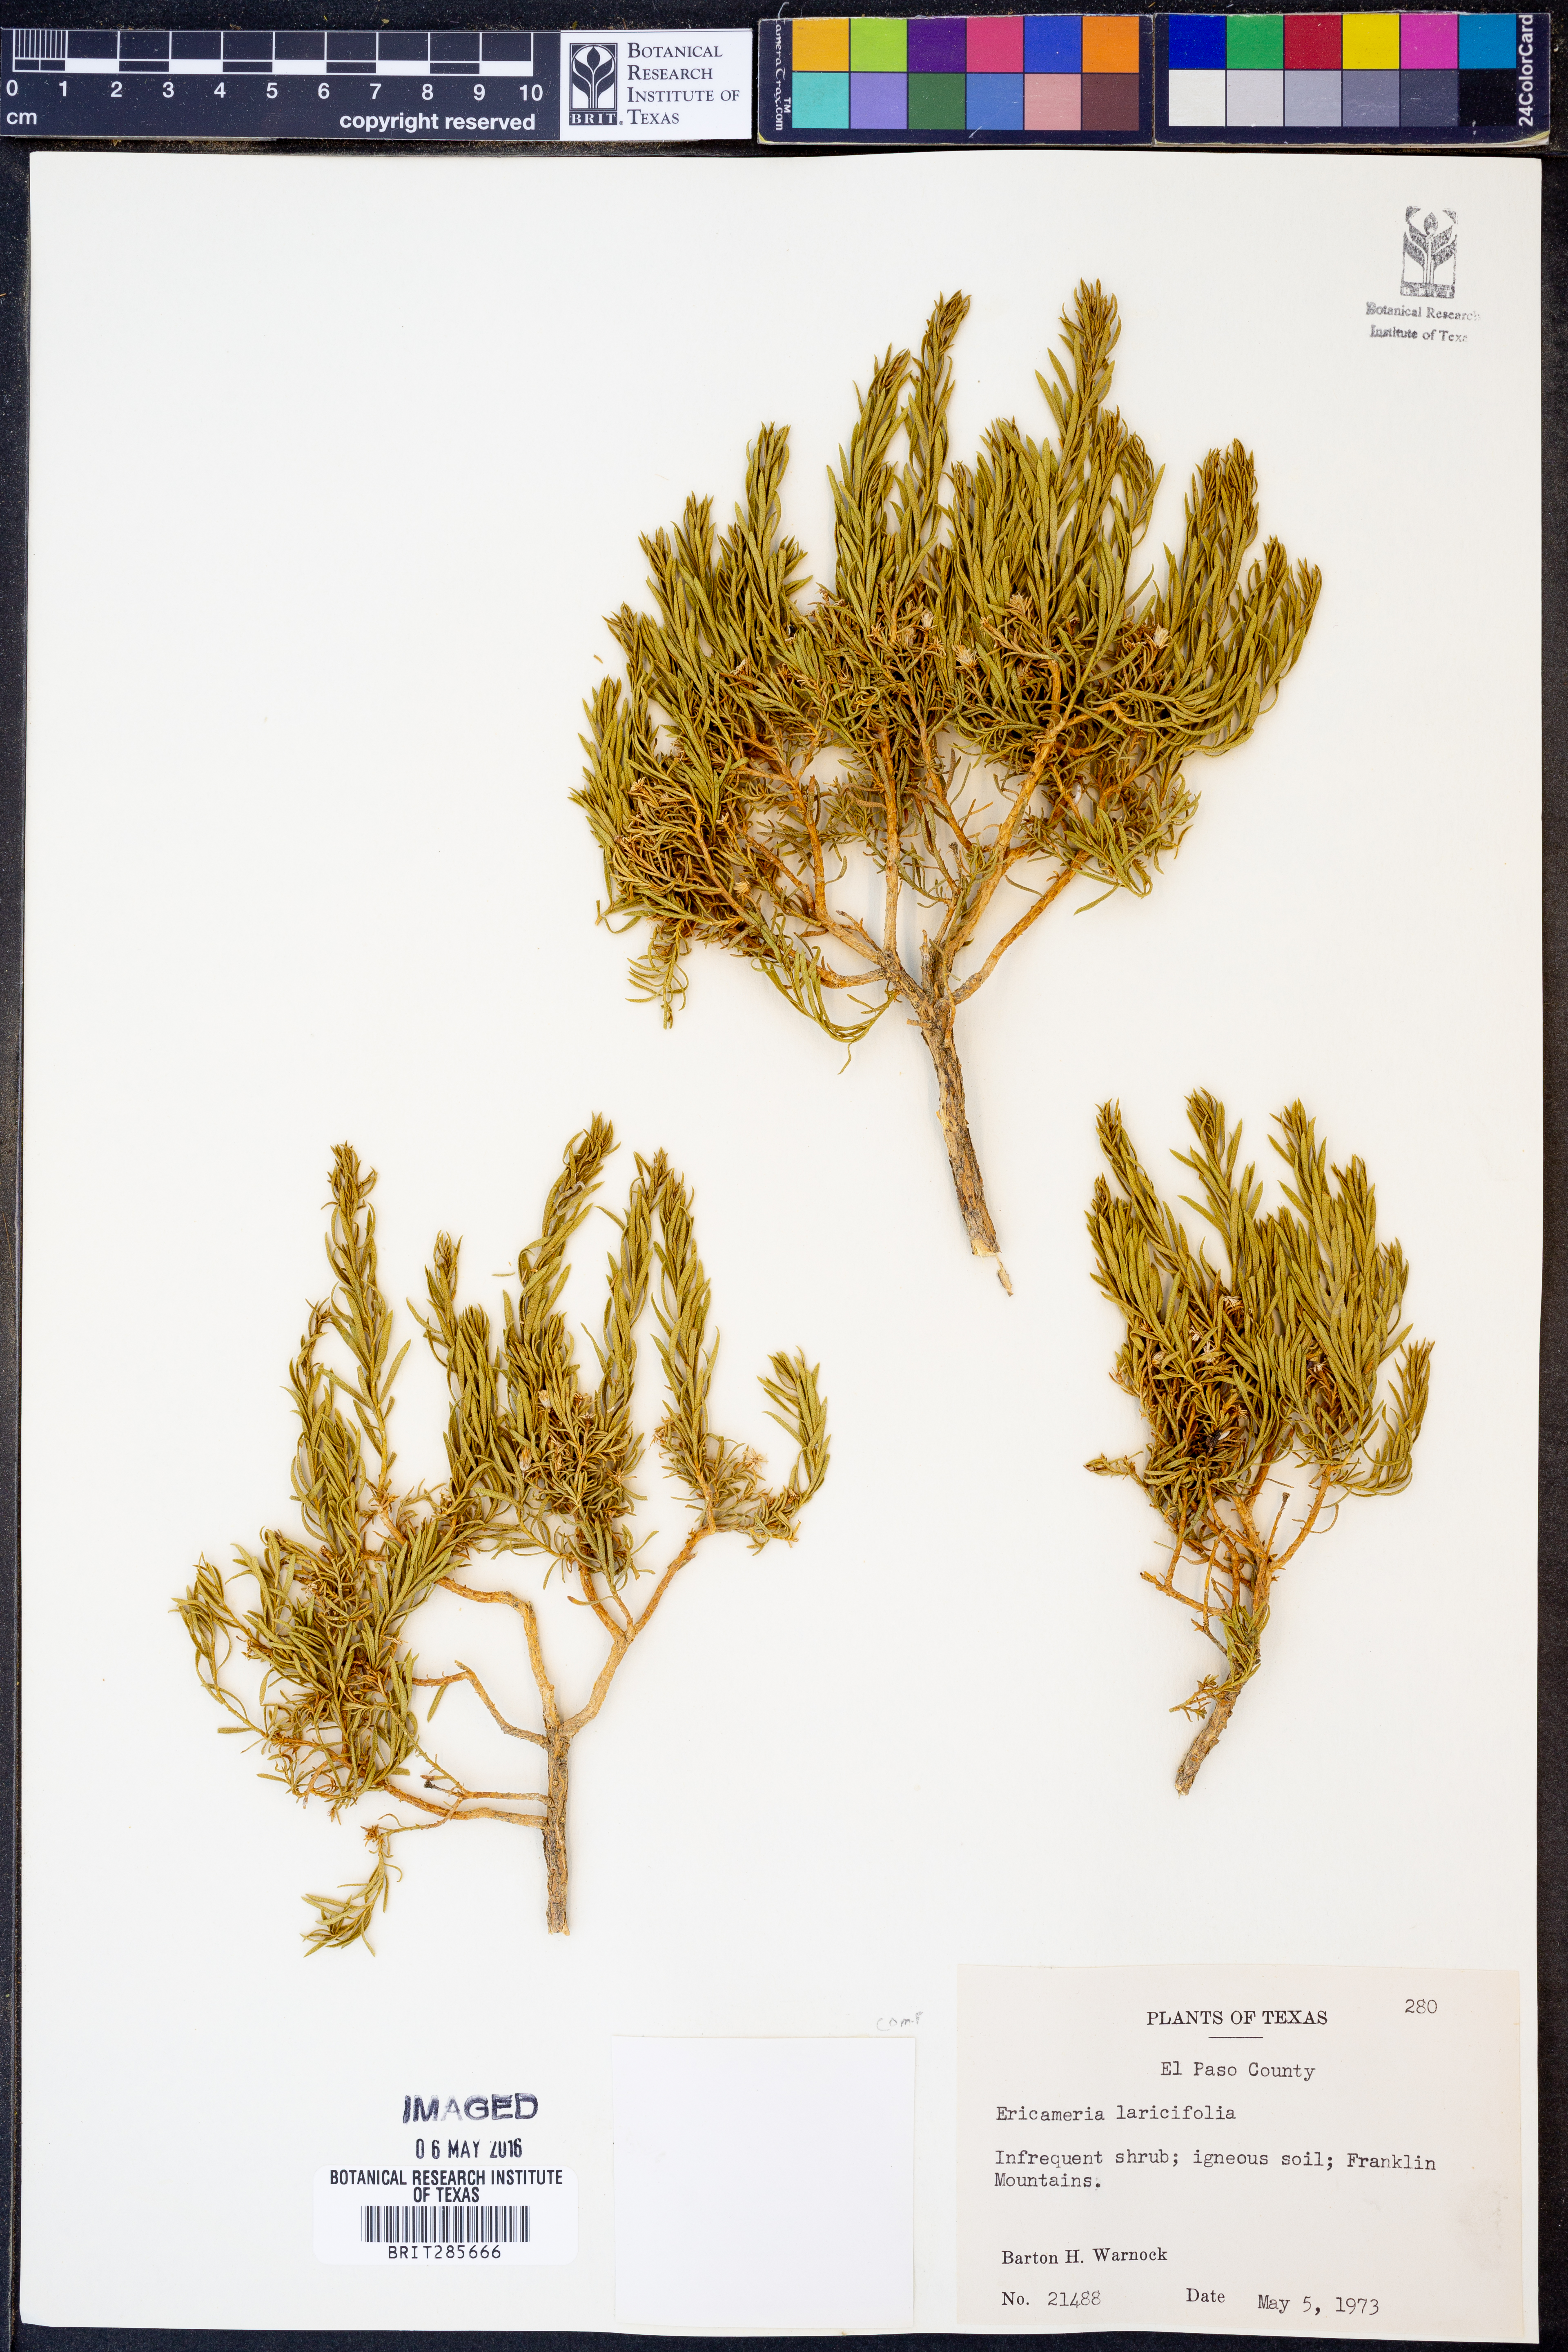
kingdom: Plantae
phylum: Tracheophyta
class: Magnoliopsida
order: Asterales
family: Asteraceae
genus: Ericameria
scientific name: Ericameria laricifolia
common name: Turpentine-bush
